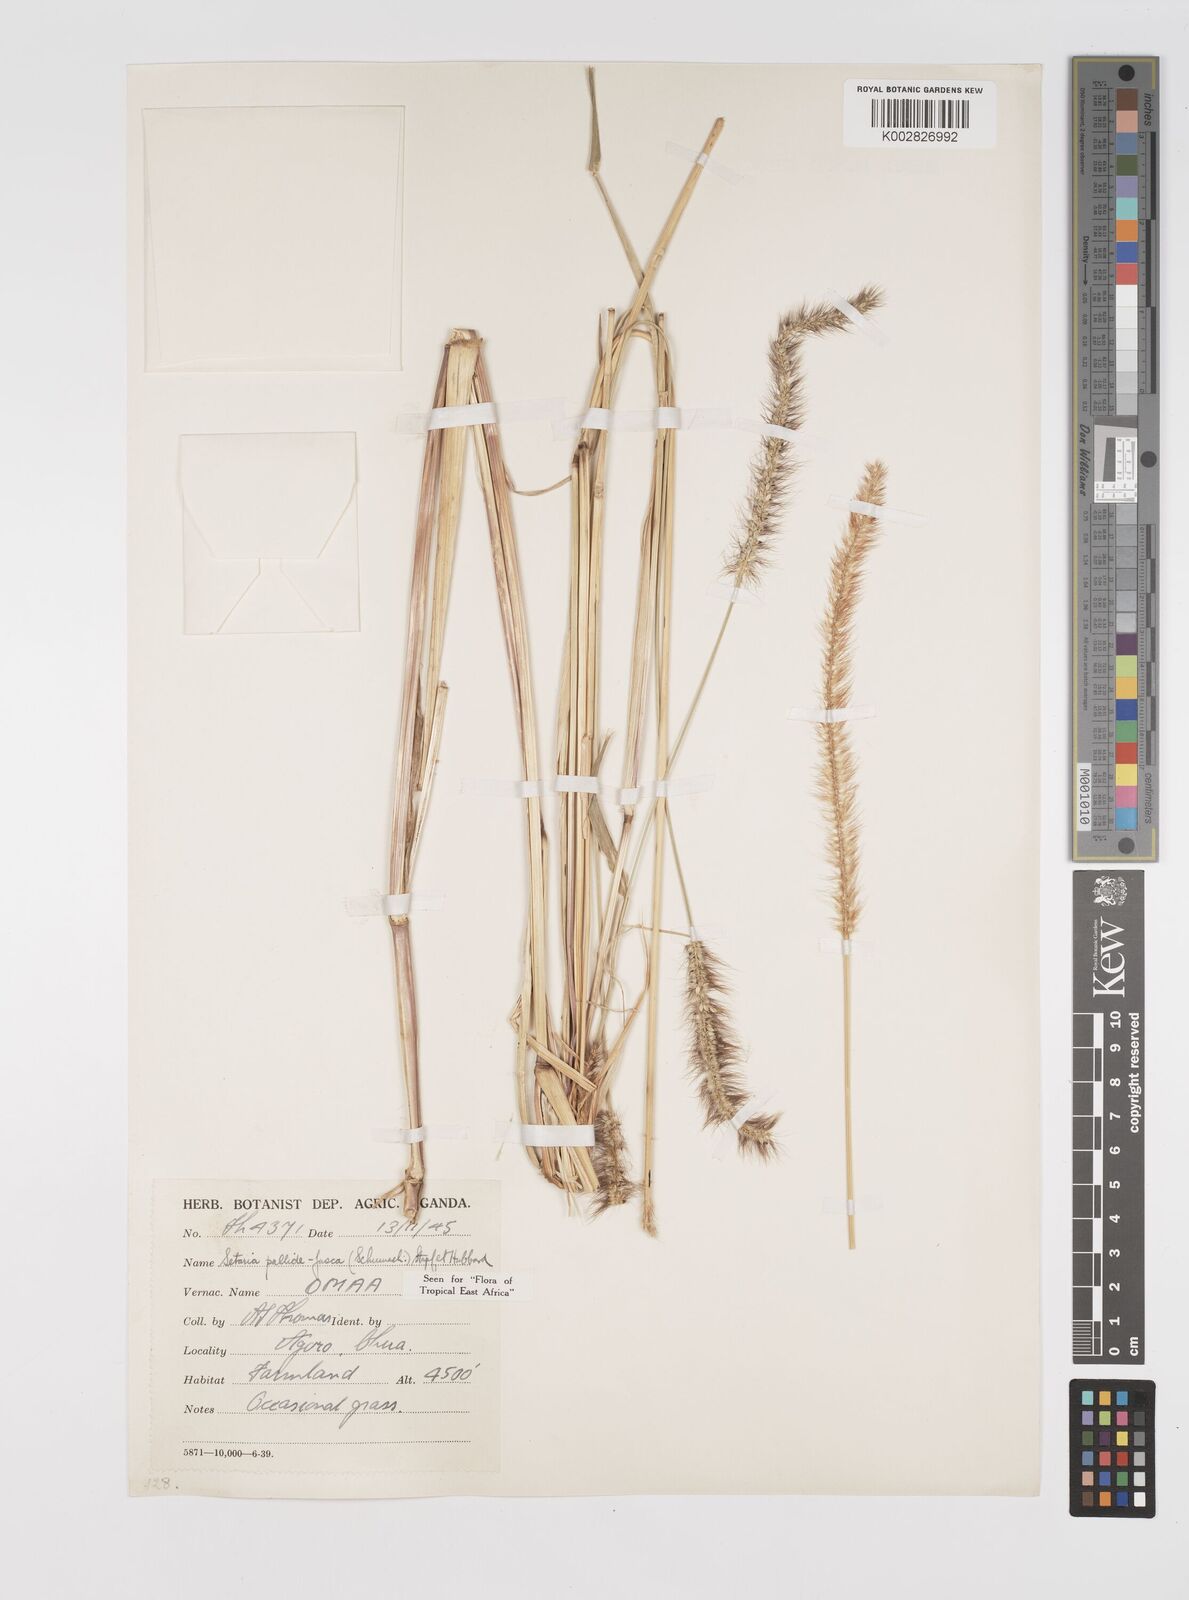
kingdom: Plantae
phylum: Tracheophyta
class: Liliopsida
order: Poales
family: Poaceae
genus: Setaria
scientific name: Setaria pumila
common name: Yellow bristle-grass
